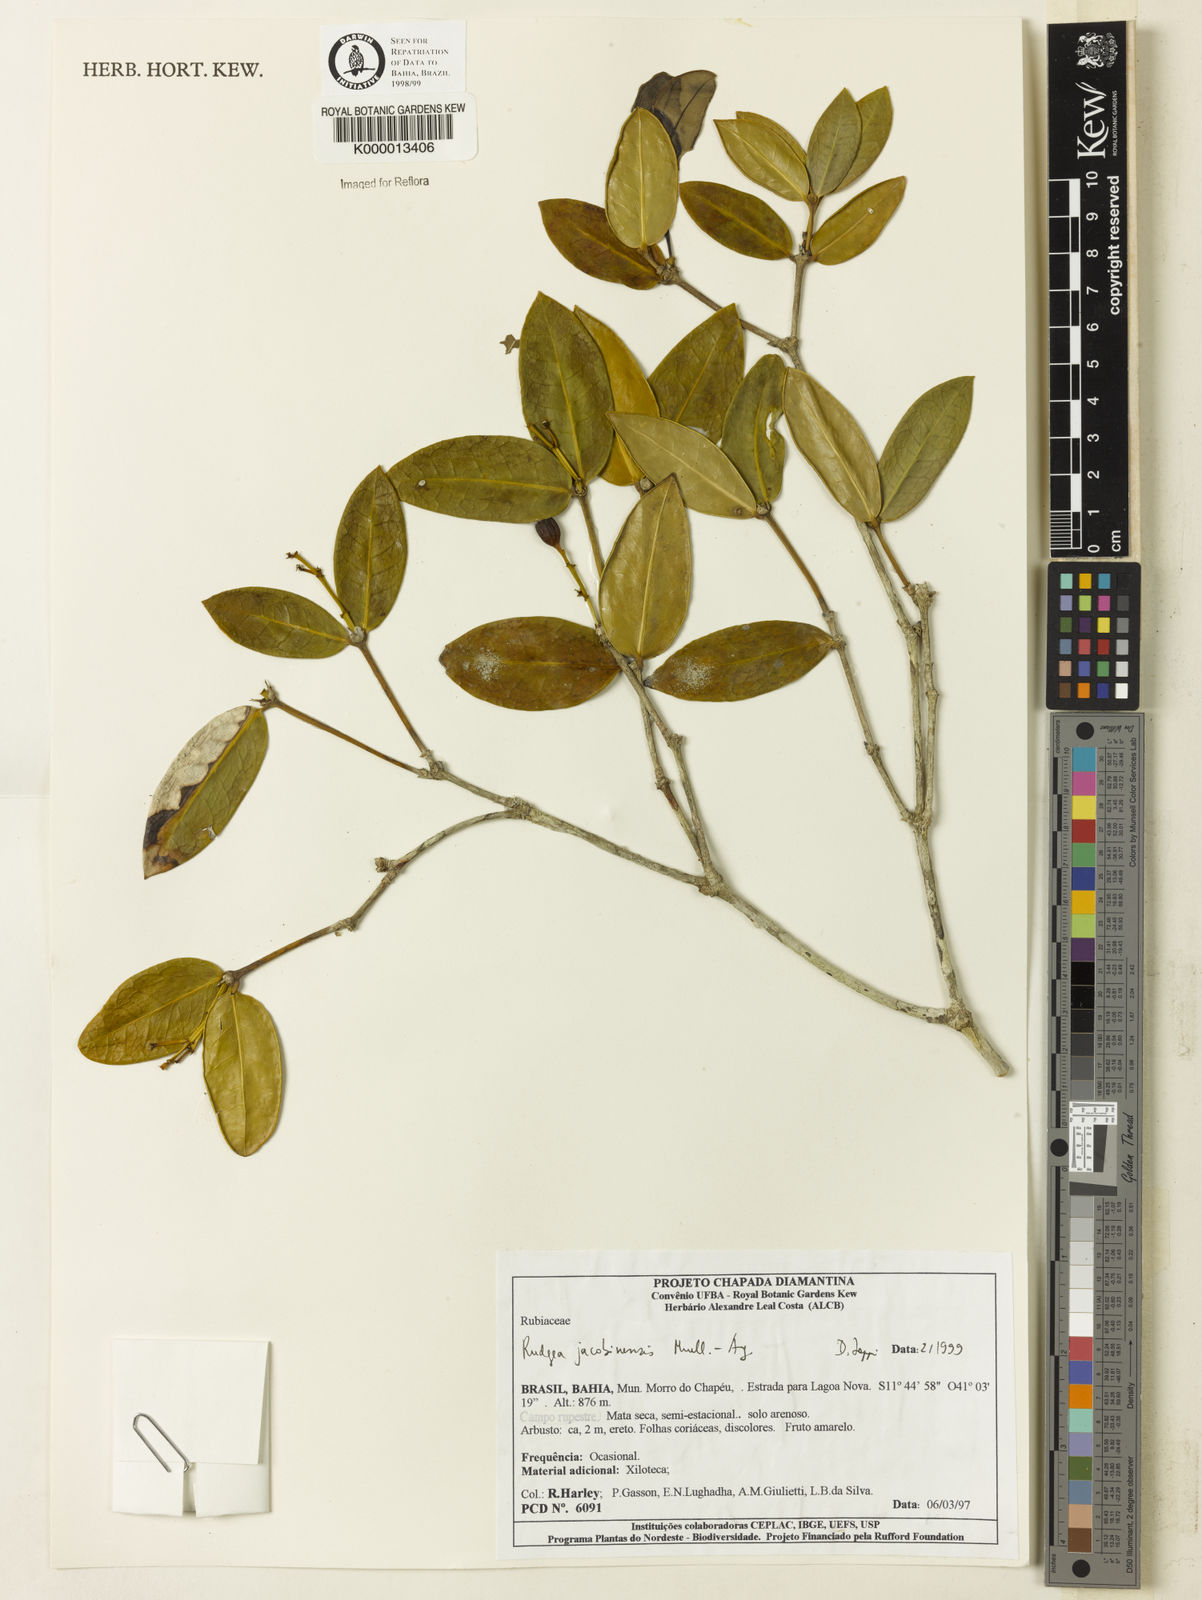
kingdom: Plantae
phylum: Tracheophyta
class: Magnoliopsida
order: Gentianales
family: Rubiaceae
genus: Rudgea
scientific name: Rudgea erioloba
